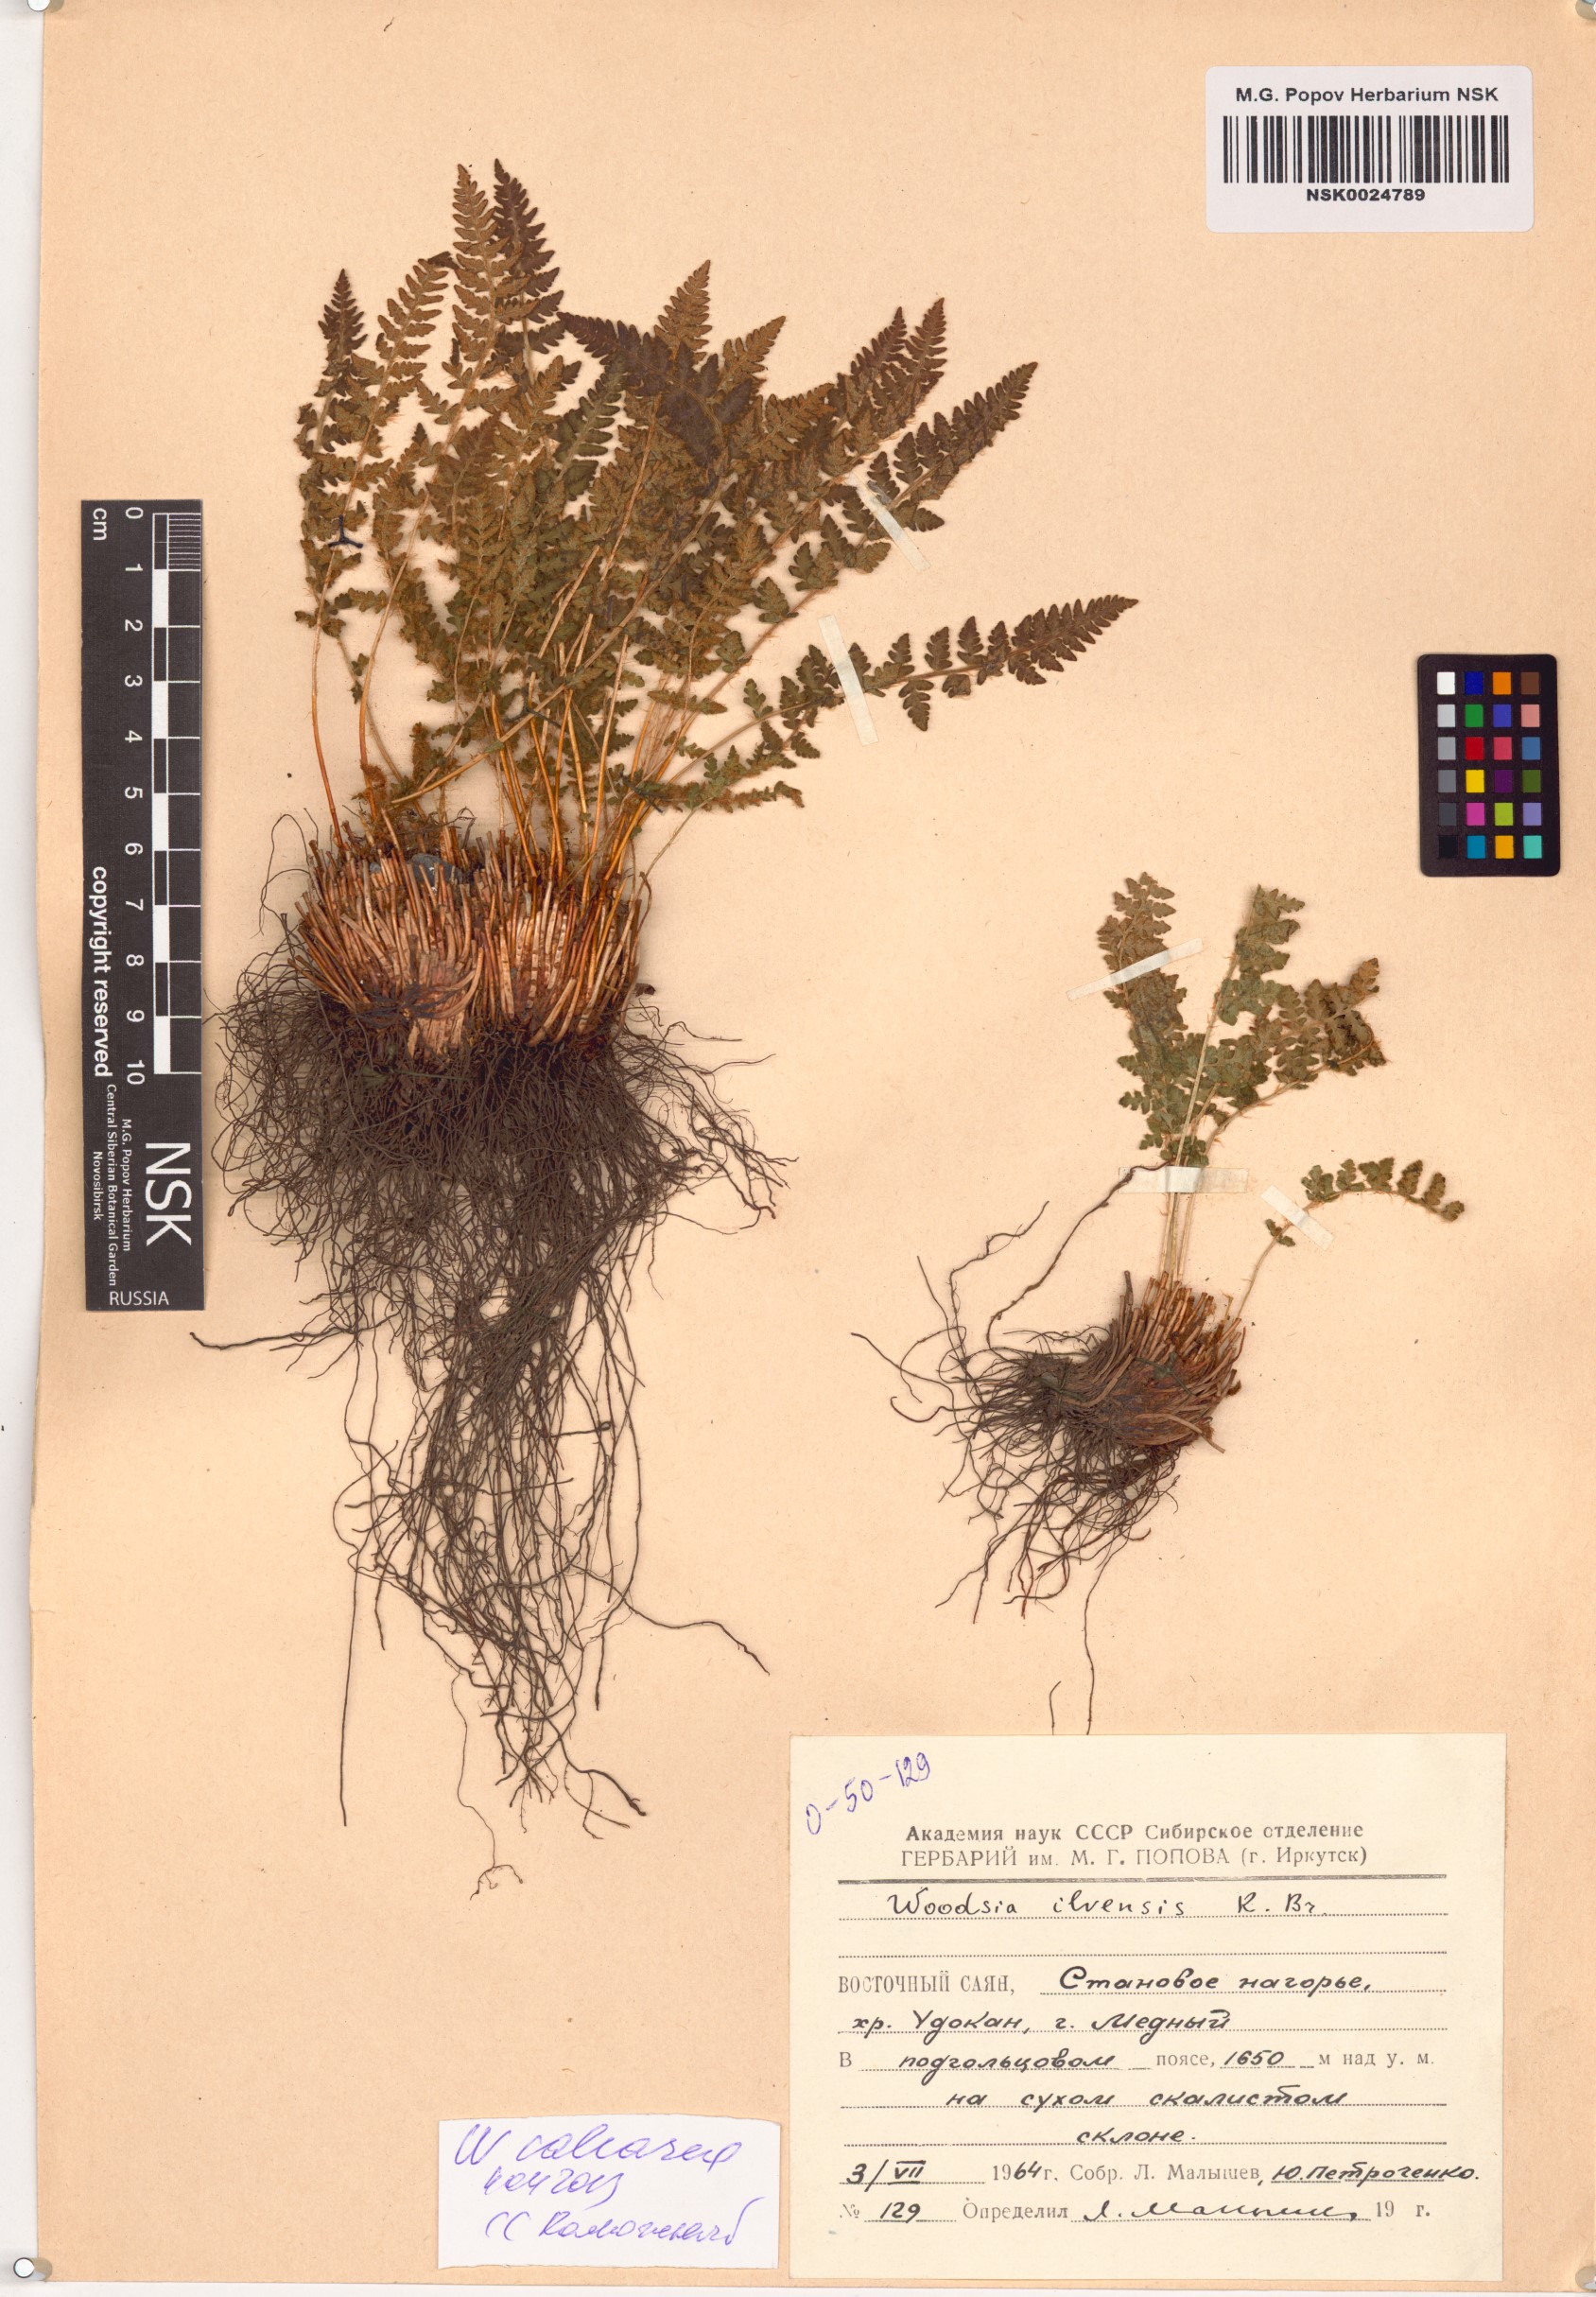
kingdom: Plantae
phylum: Tracheophyta
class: Polypodiopsida
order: Polypodiales
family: Woodsiaceae
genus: Woodsia
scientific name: Woodsia calcarea
